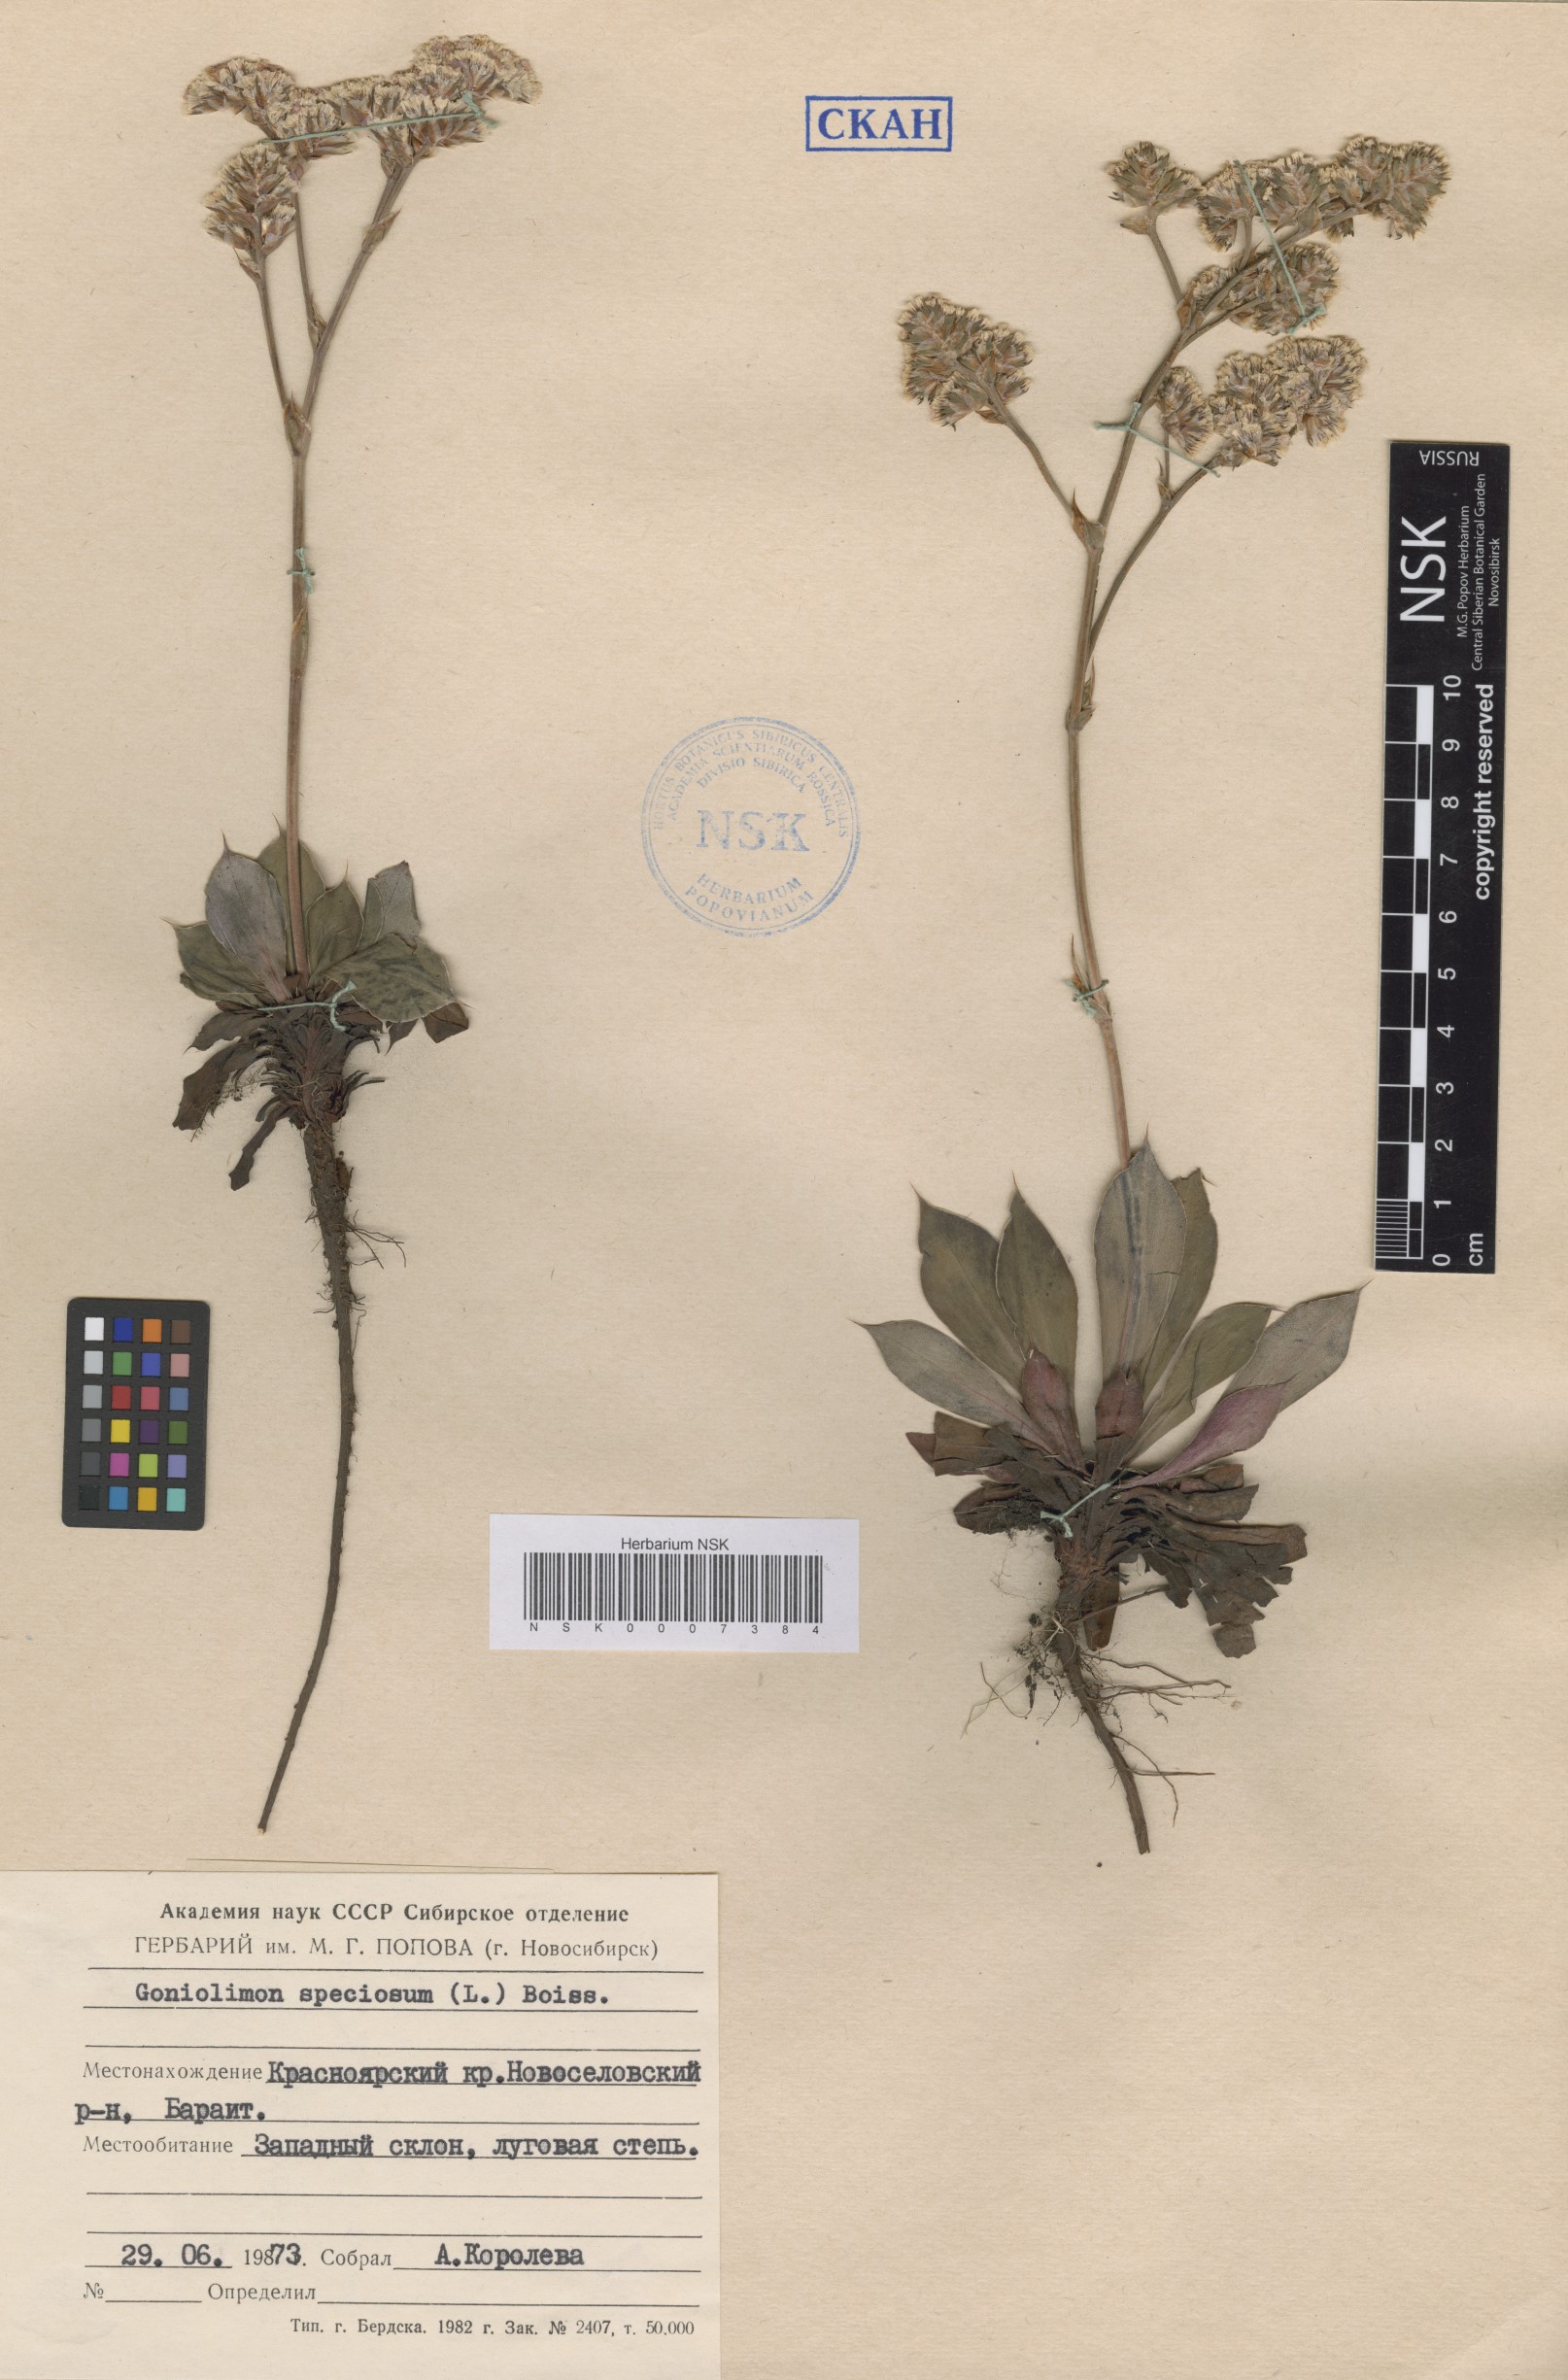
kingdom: Plantae
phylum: Tracheophyta
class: Magnoliopsida
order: Caryophyllales
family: Plumbaginaceae
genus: Goniolimon
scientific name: Goniolimon speciosum
